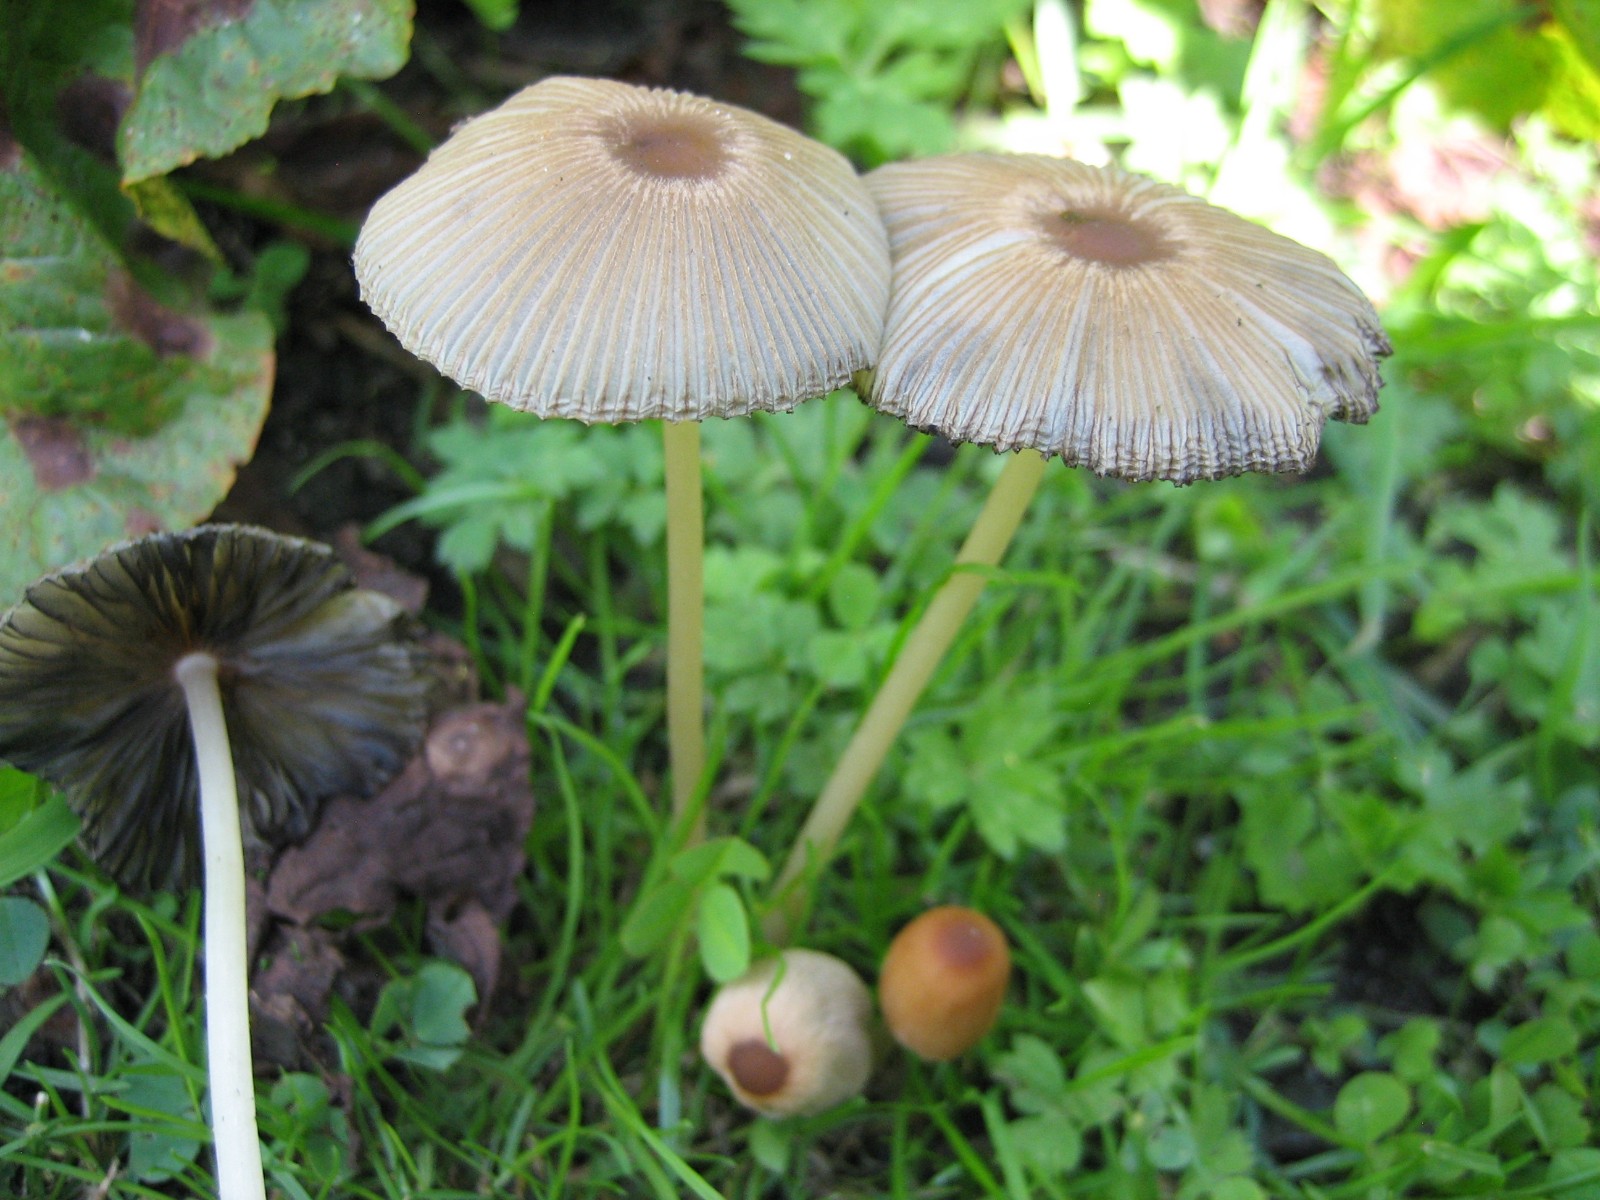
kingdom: Fungi
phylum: Basidiomycota
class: Agaricomycetes
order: Agaricales
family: Psathyrellaceae
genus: Parasola
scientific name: Parasola
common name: hjulhat
